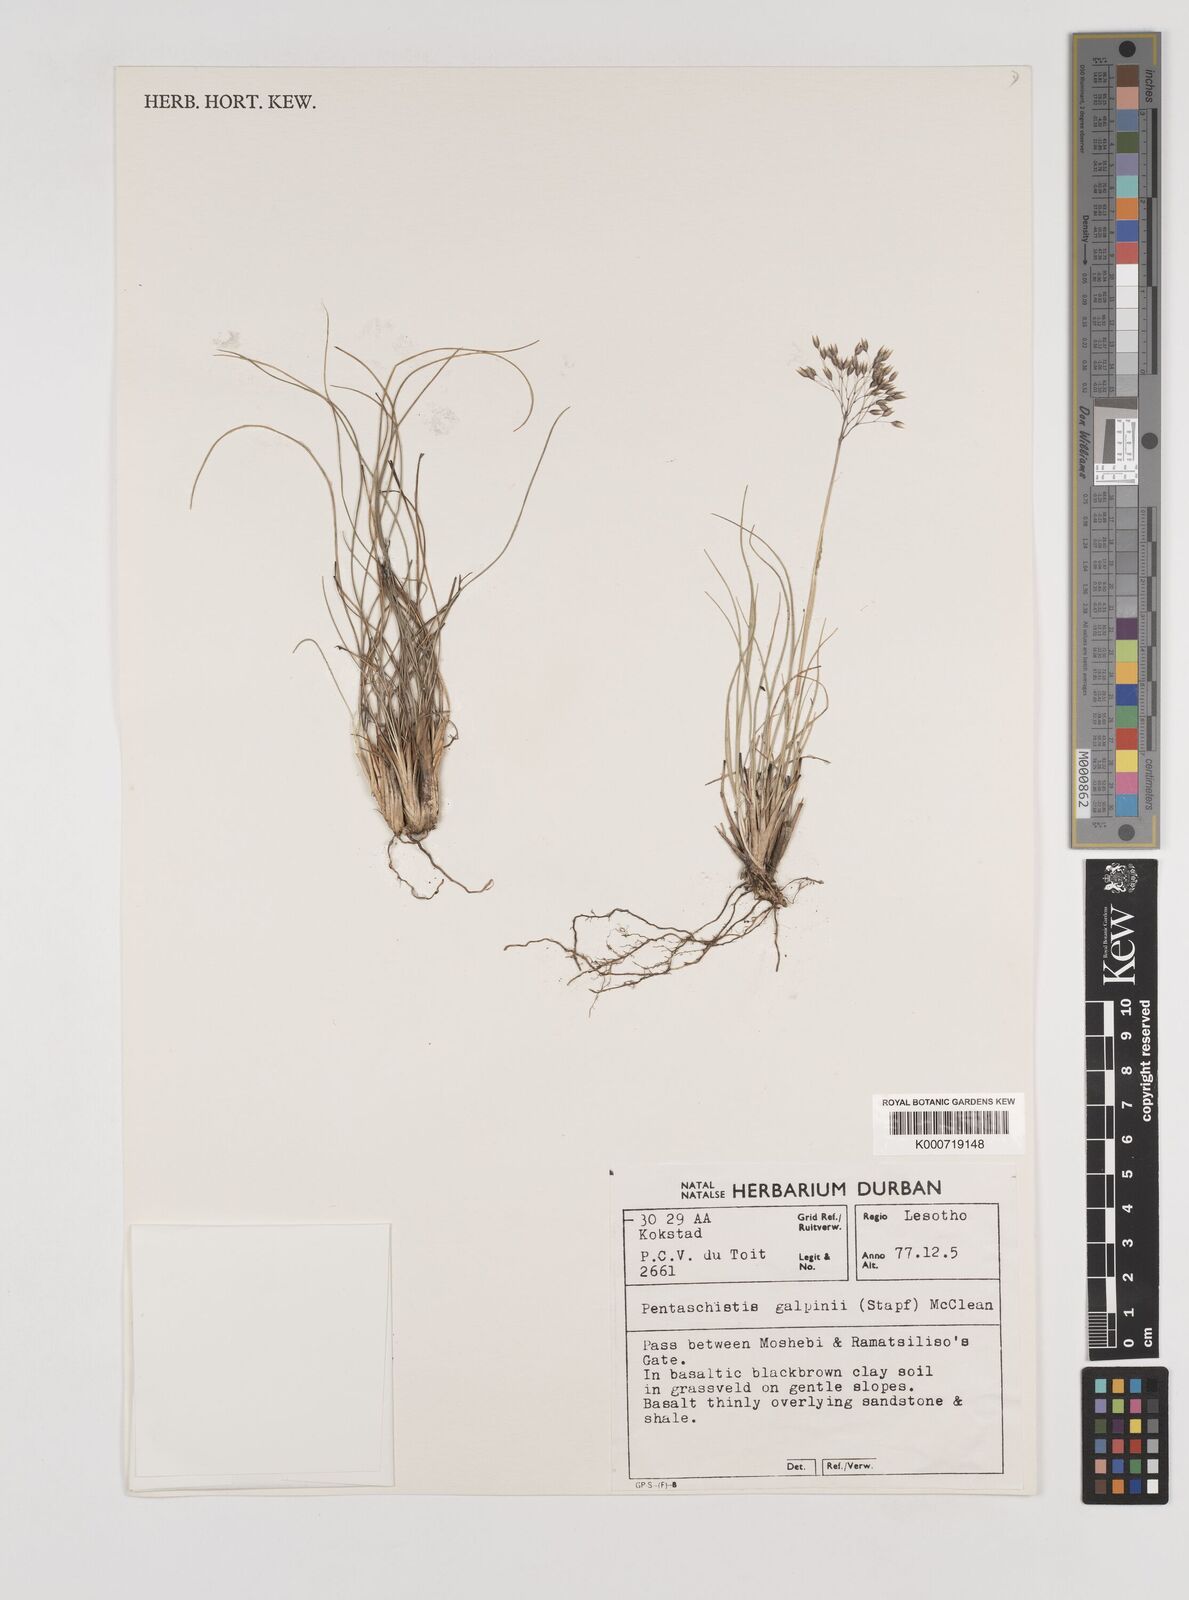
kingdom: Plantae
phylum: Tracheophyta
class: Liliopsida
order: Poales
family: Poaceae
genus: Pentameris
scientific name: Pentameris galpinii
